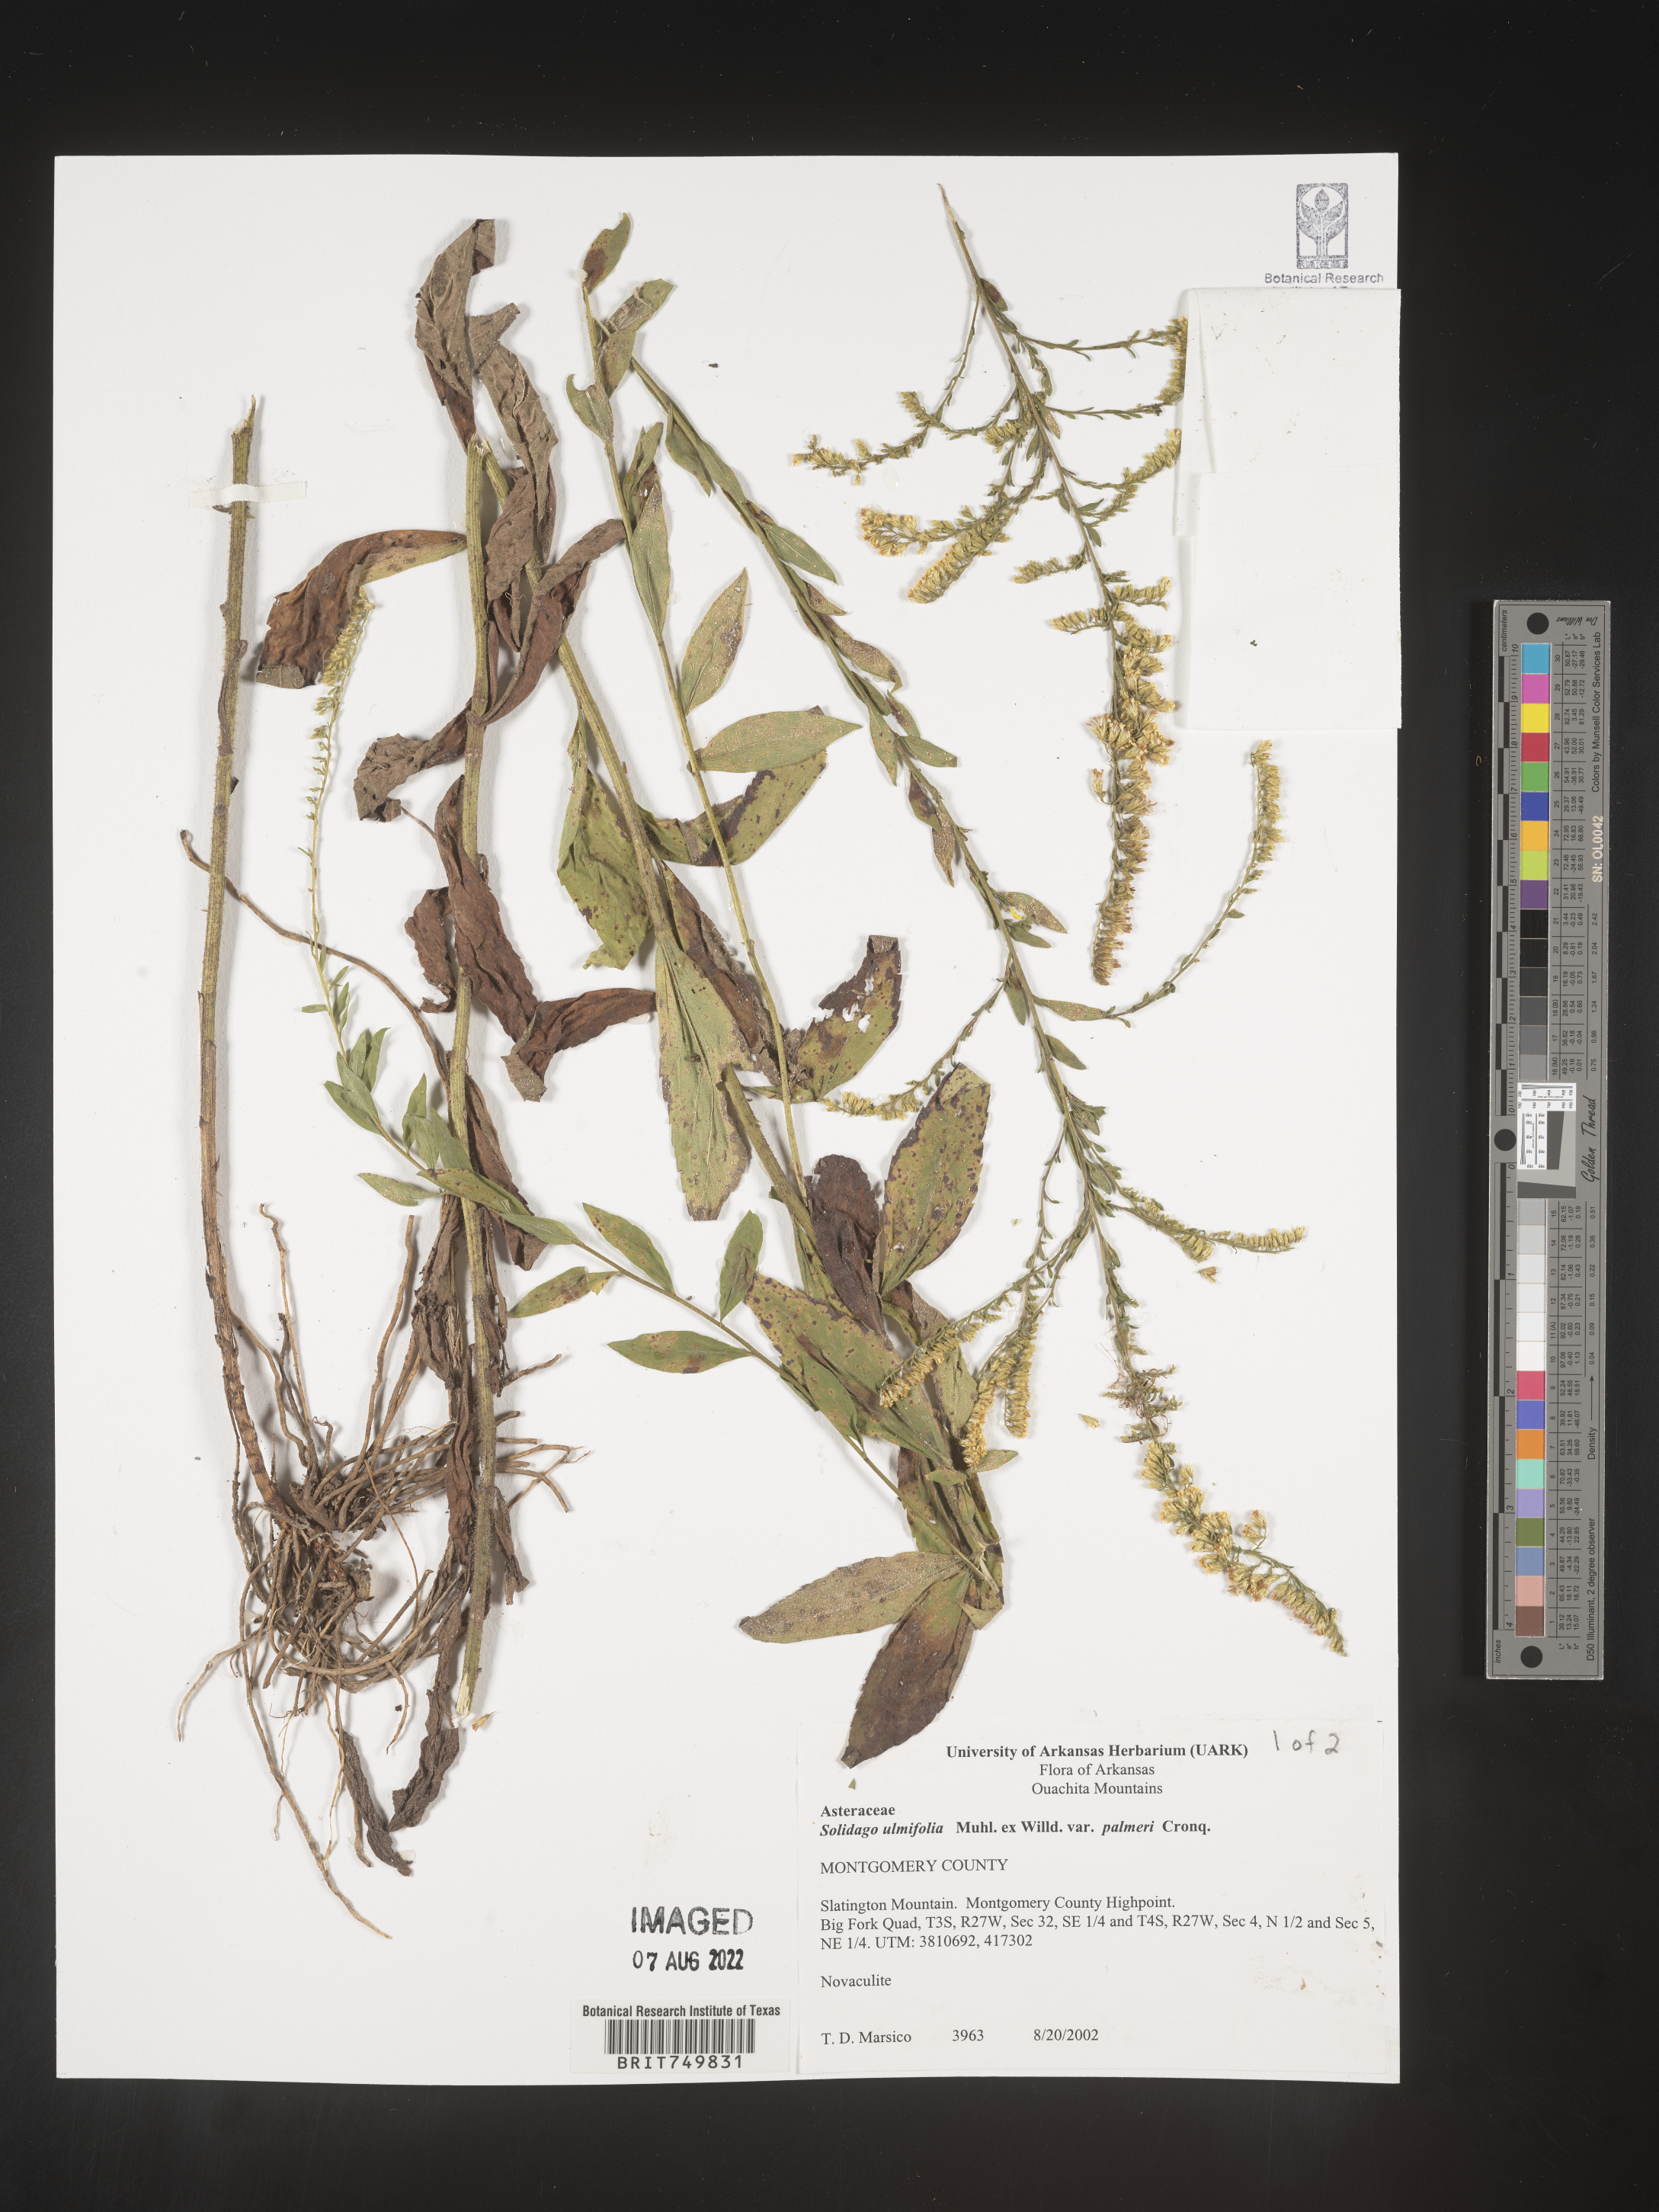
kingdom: Plantae
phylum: Tracheophyta
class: Magnoliopsida
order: Asterales
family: Asteraceae
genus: Solidago
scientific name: Solidago ulmifolia
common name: Elm-leaf goldenrod
